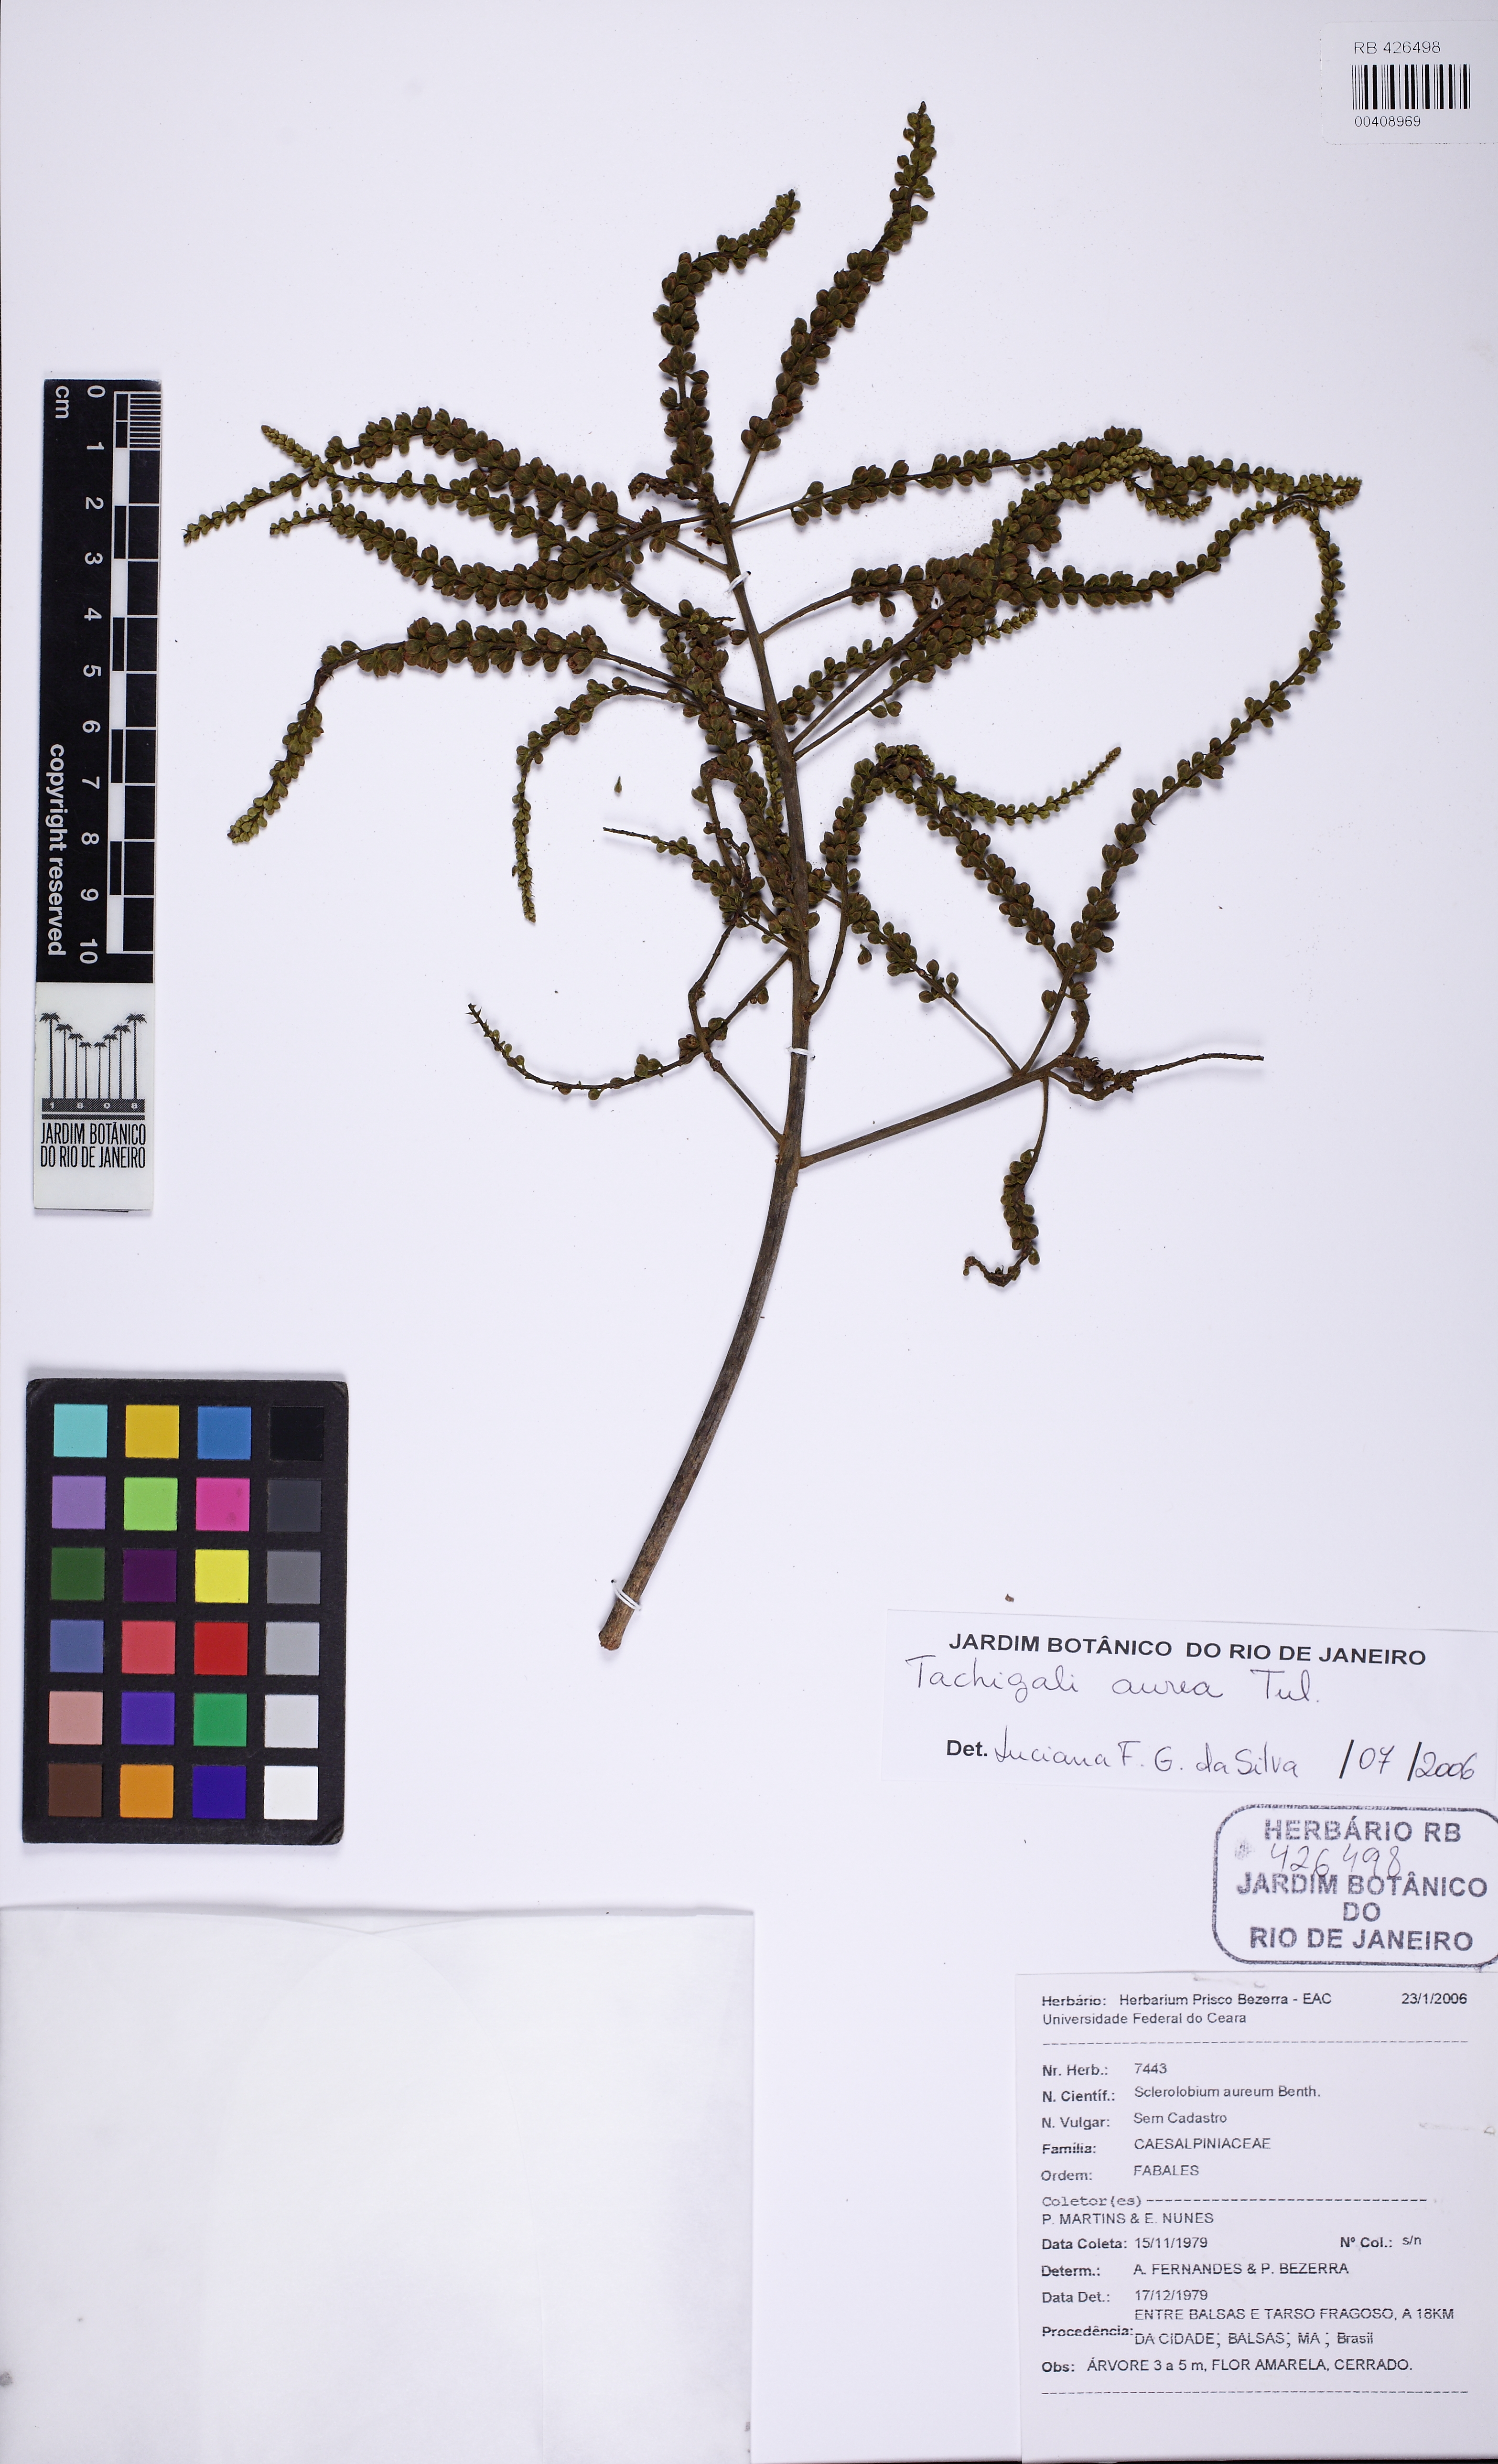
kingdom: Plantae
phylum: Tracheophyta
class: Magnoliopsida
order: Fabales
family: Fabaceae
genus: Tachigali
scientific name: Tachigali aurea
